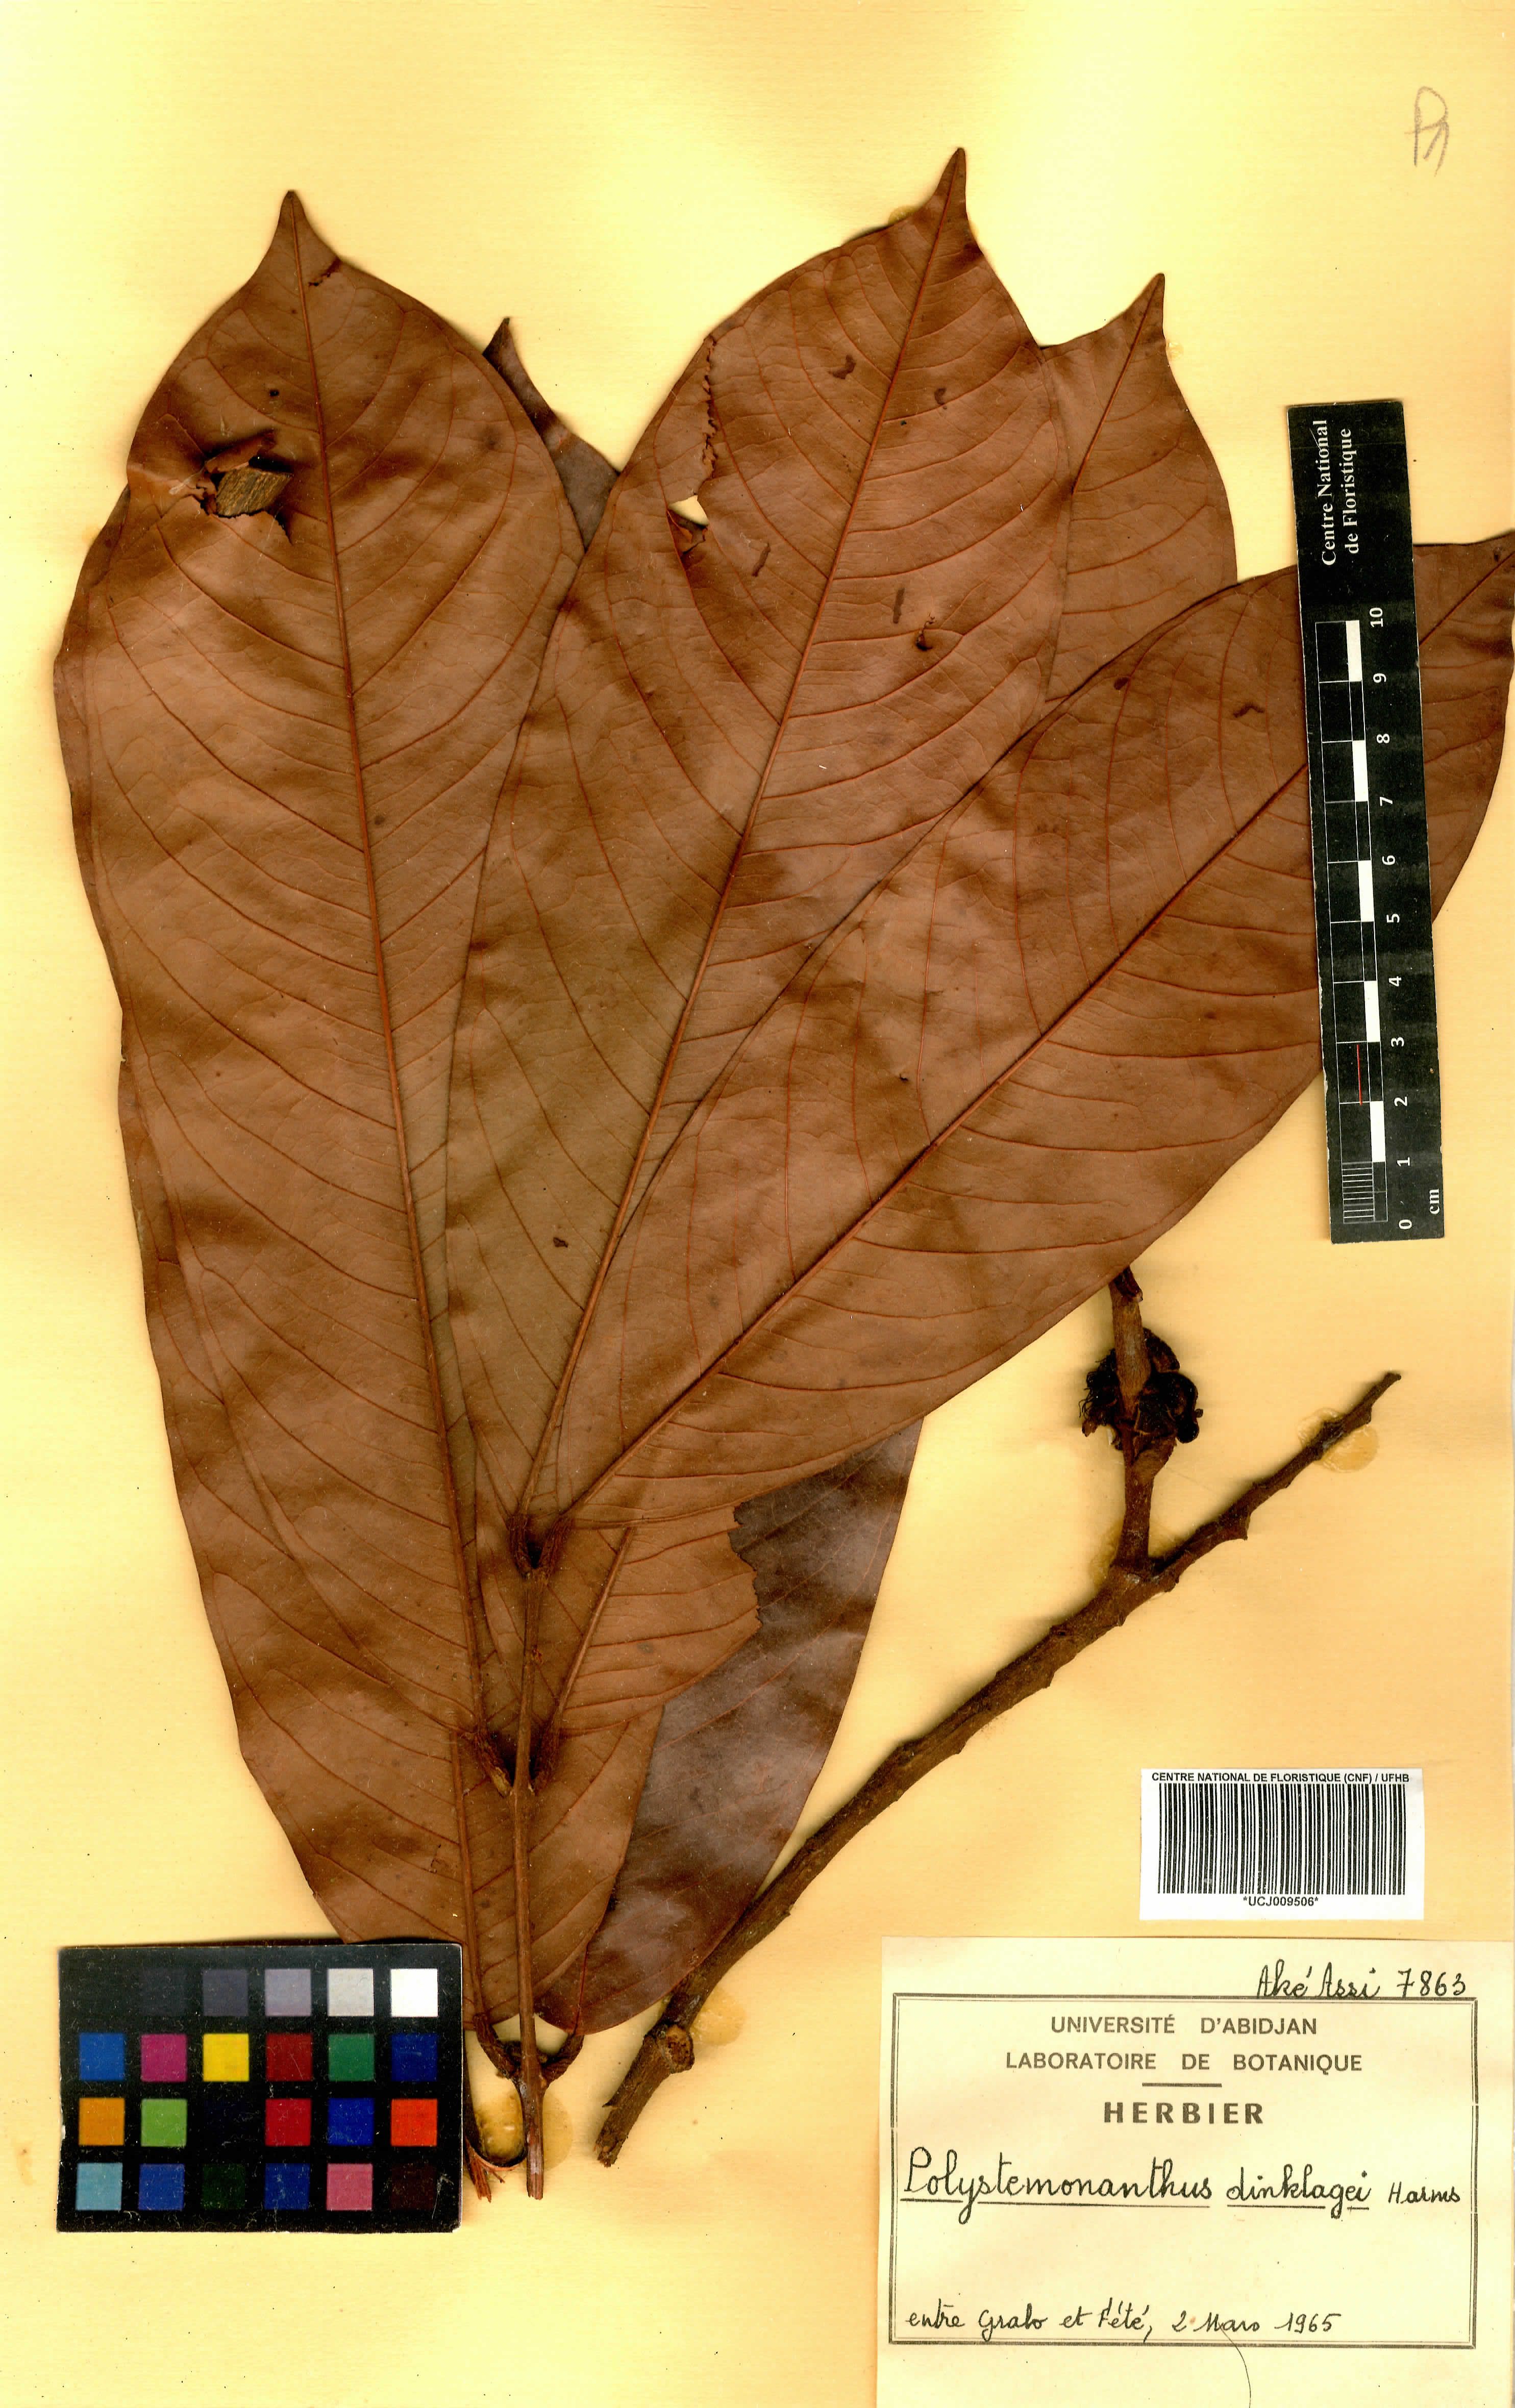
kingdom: Plantae
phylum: Tracheophyta
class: Magnoliopsida
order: Fabales
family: Fabaceae
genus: Polystemonanthus
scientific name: Polystemonanthus dinklagei
